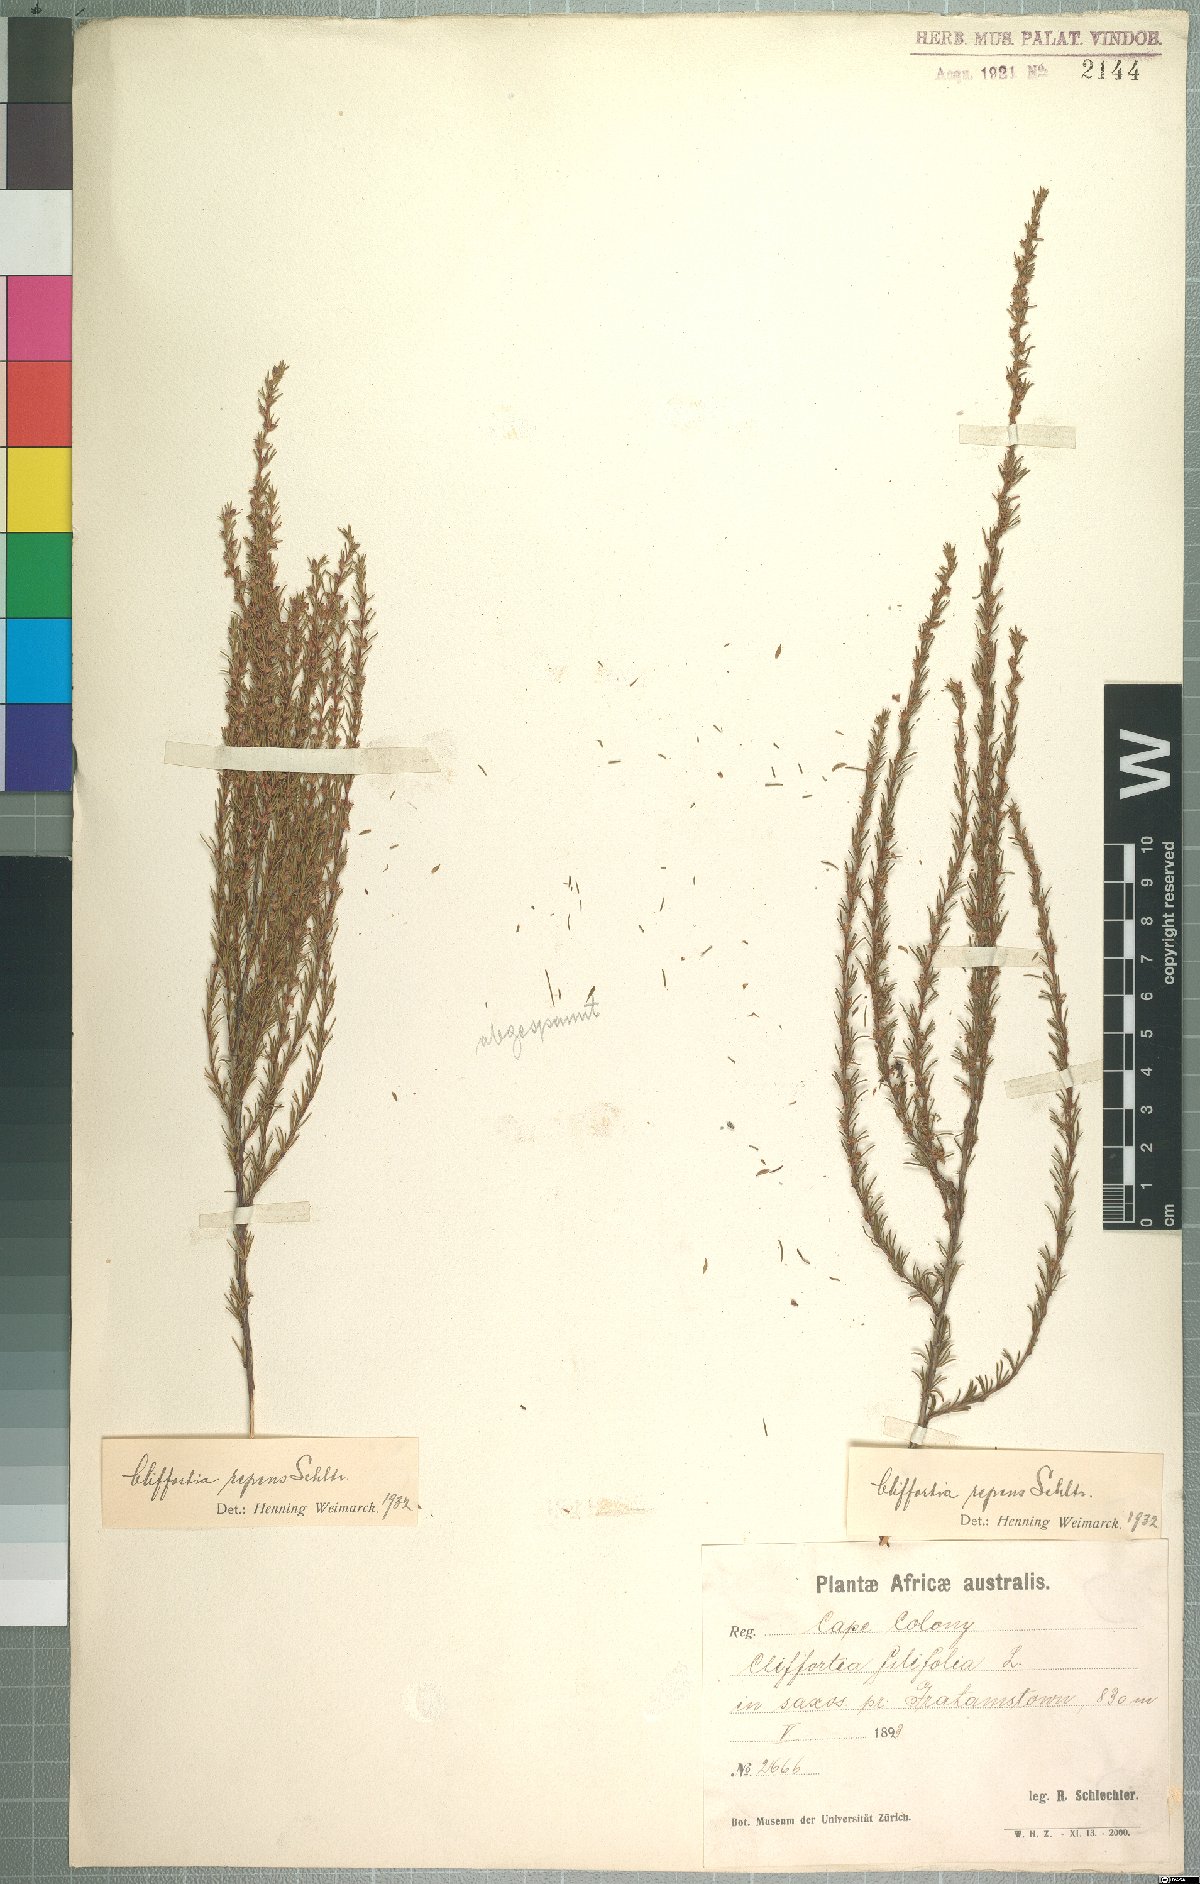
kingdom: Plantae
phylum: Tracheophyta
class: Magnoliopsida
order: Rosales
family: Rosaceae
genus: Cliffortia
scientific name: Cliffortia repens
